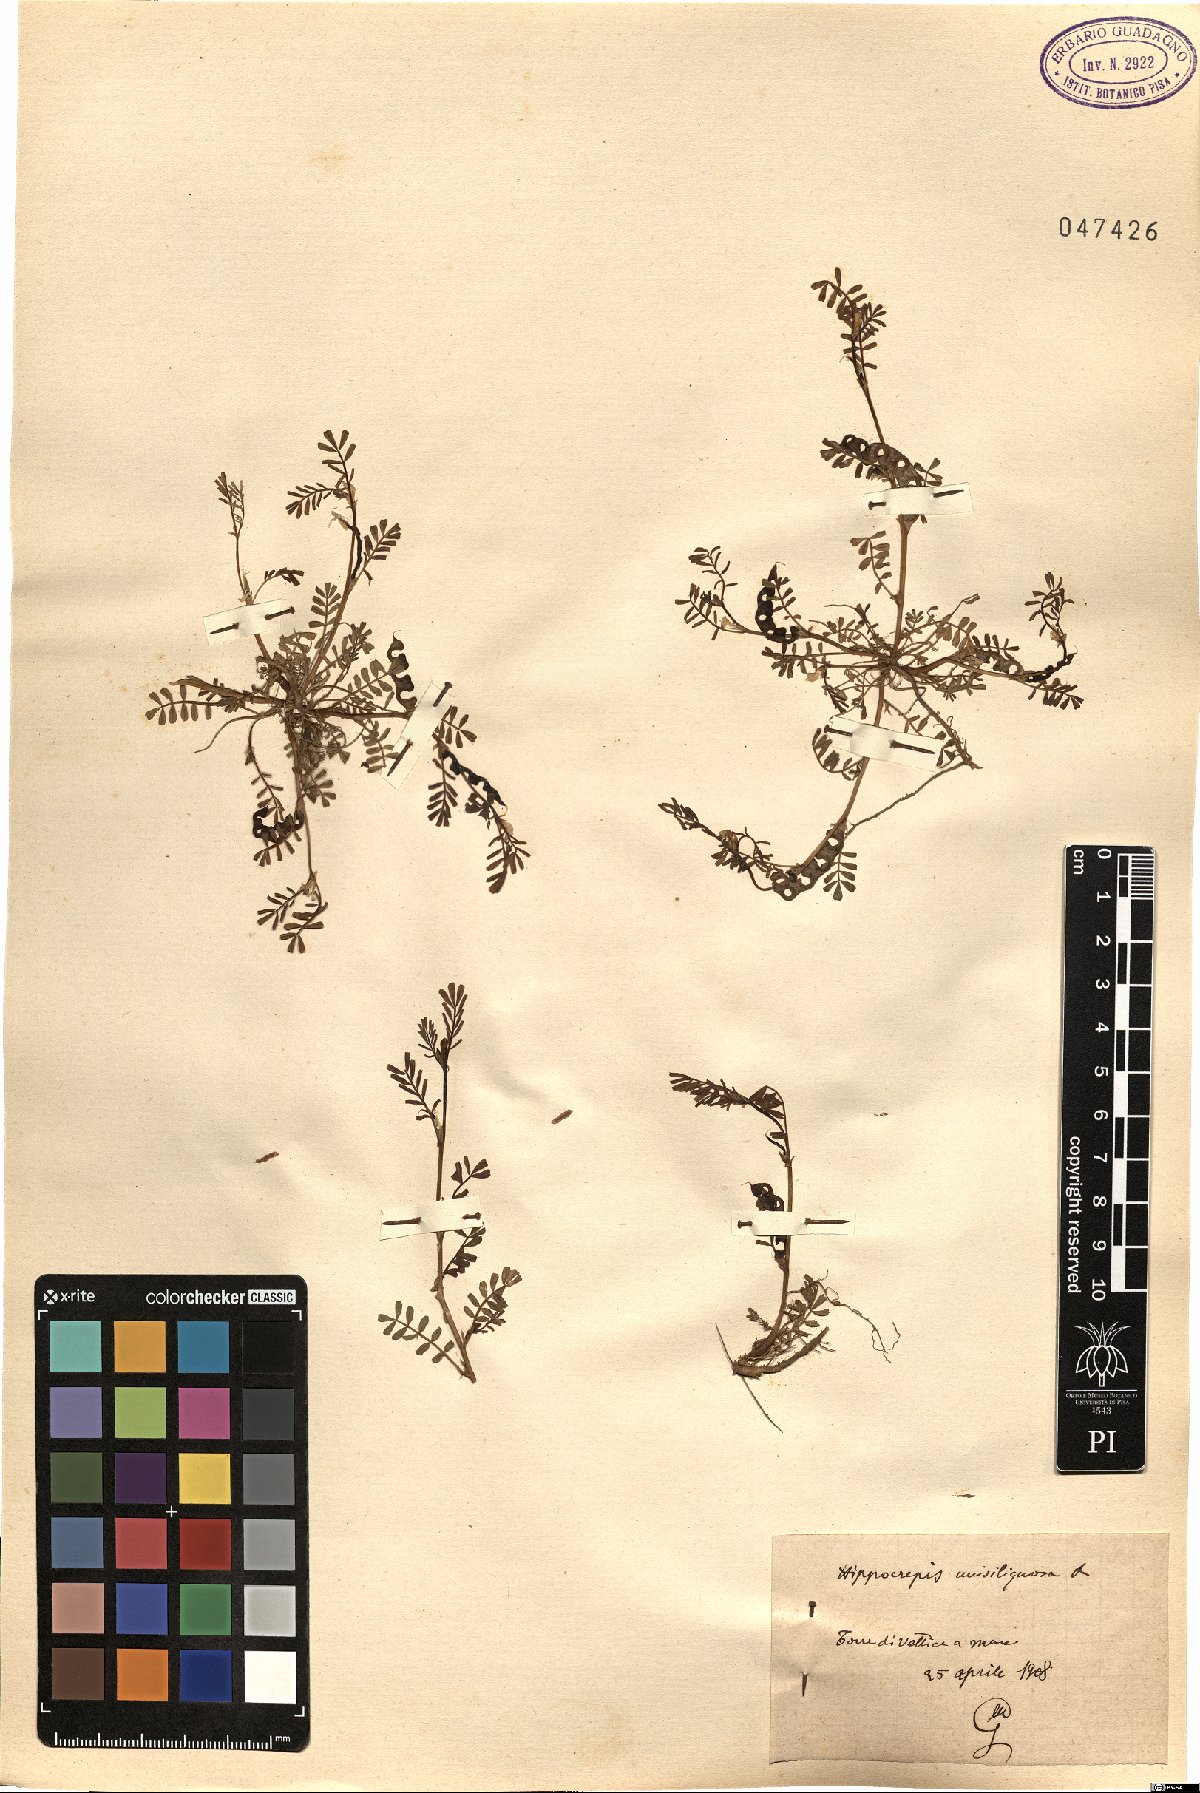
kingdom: Plantae
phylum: Tracheophyta
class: Magnoliopsida
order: Fabales
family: Fabaceae
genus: Hippocrepis
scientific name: Hippocrepis unisiliquosa
